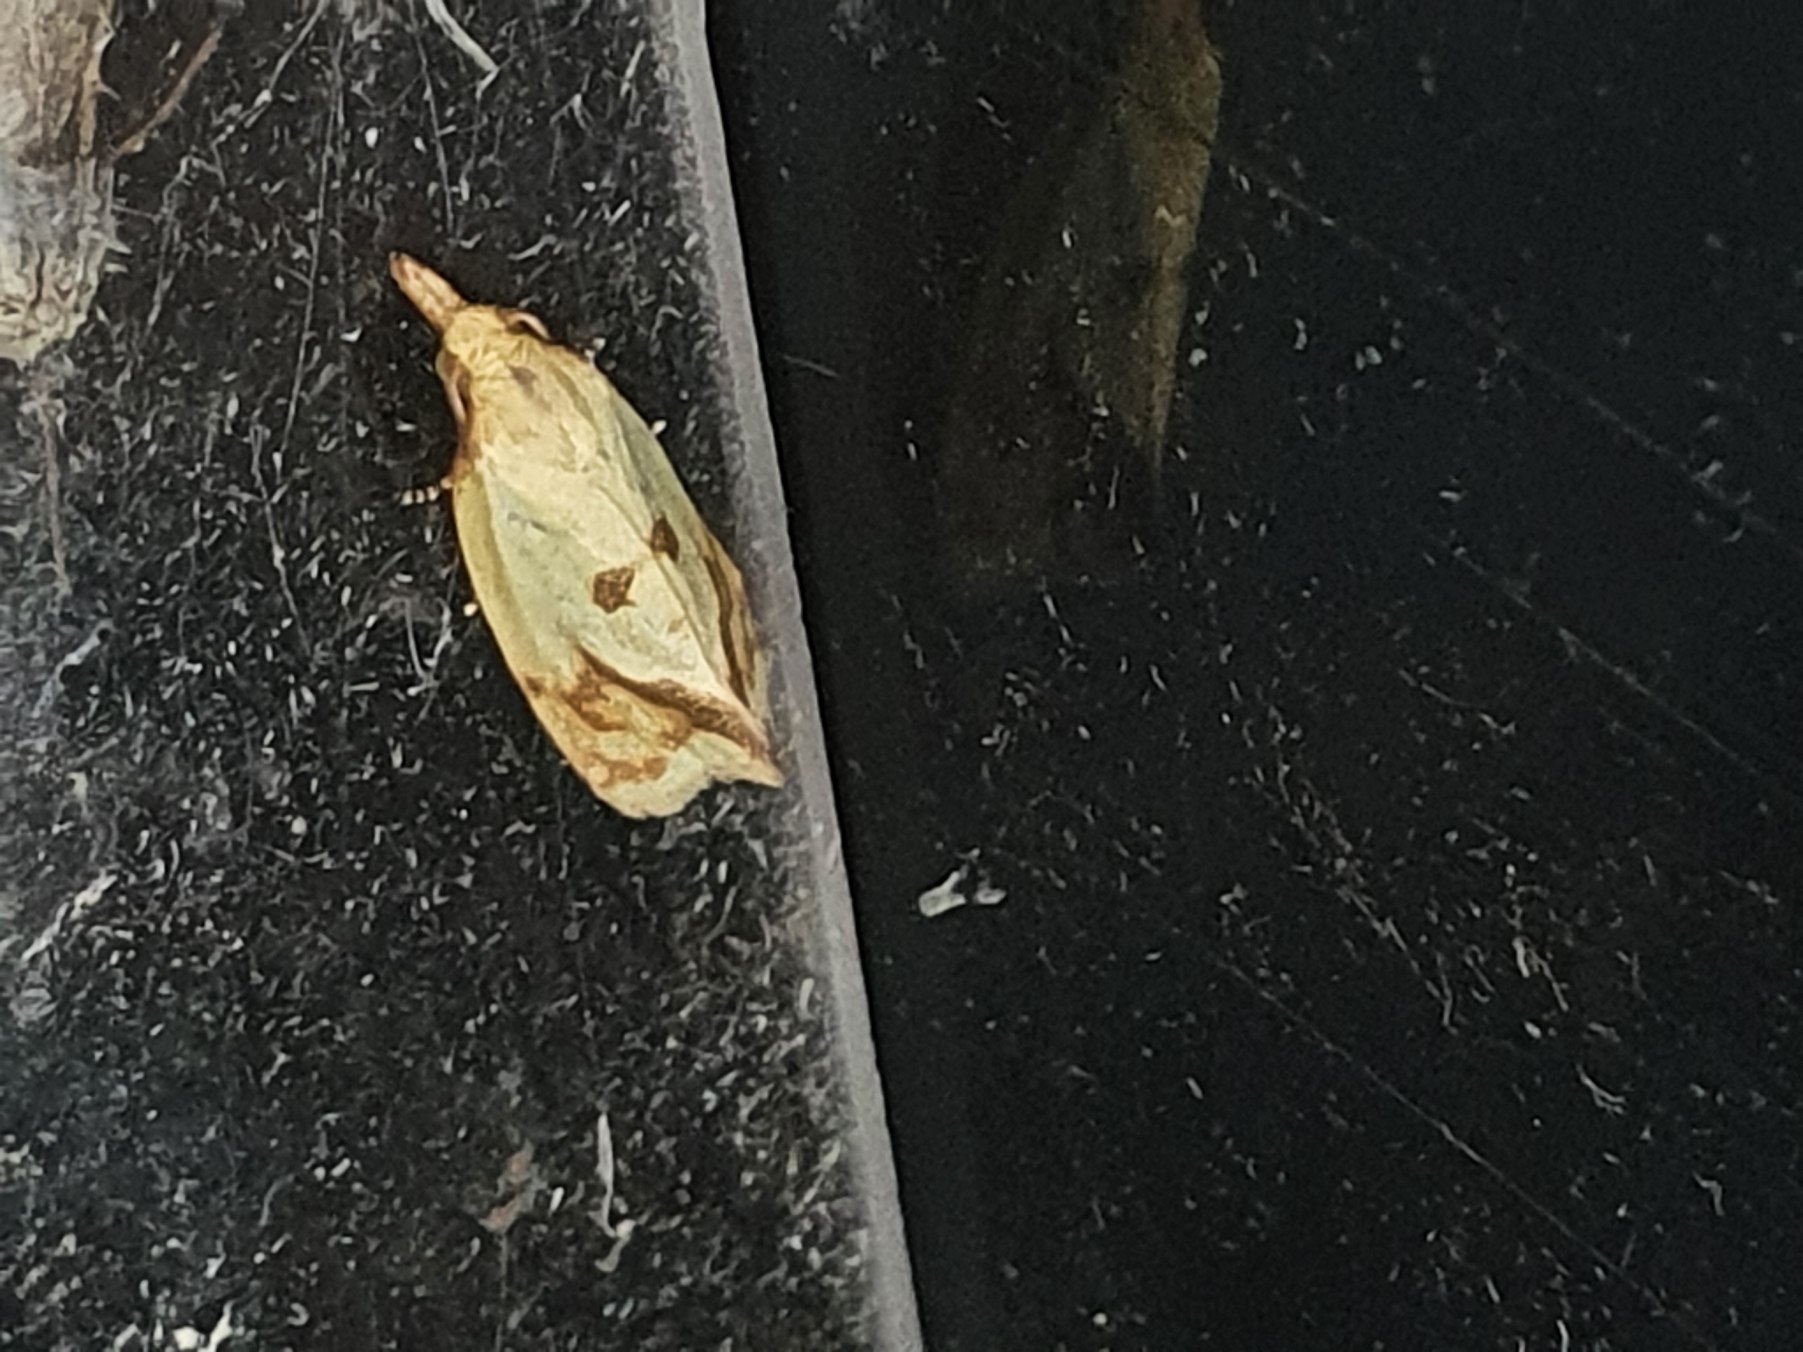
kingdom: Animalia
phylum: Arthropoda
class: Insecta
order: Lepidoptera
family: Tortricidae
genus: Agapeta
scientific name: Agapeta hamana
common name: Tidselgulvikler
